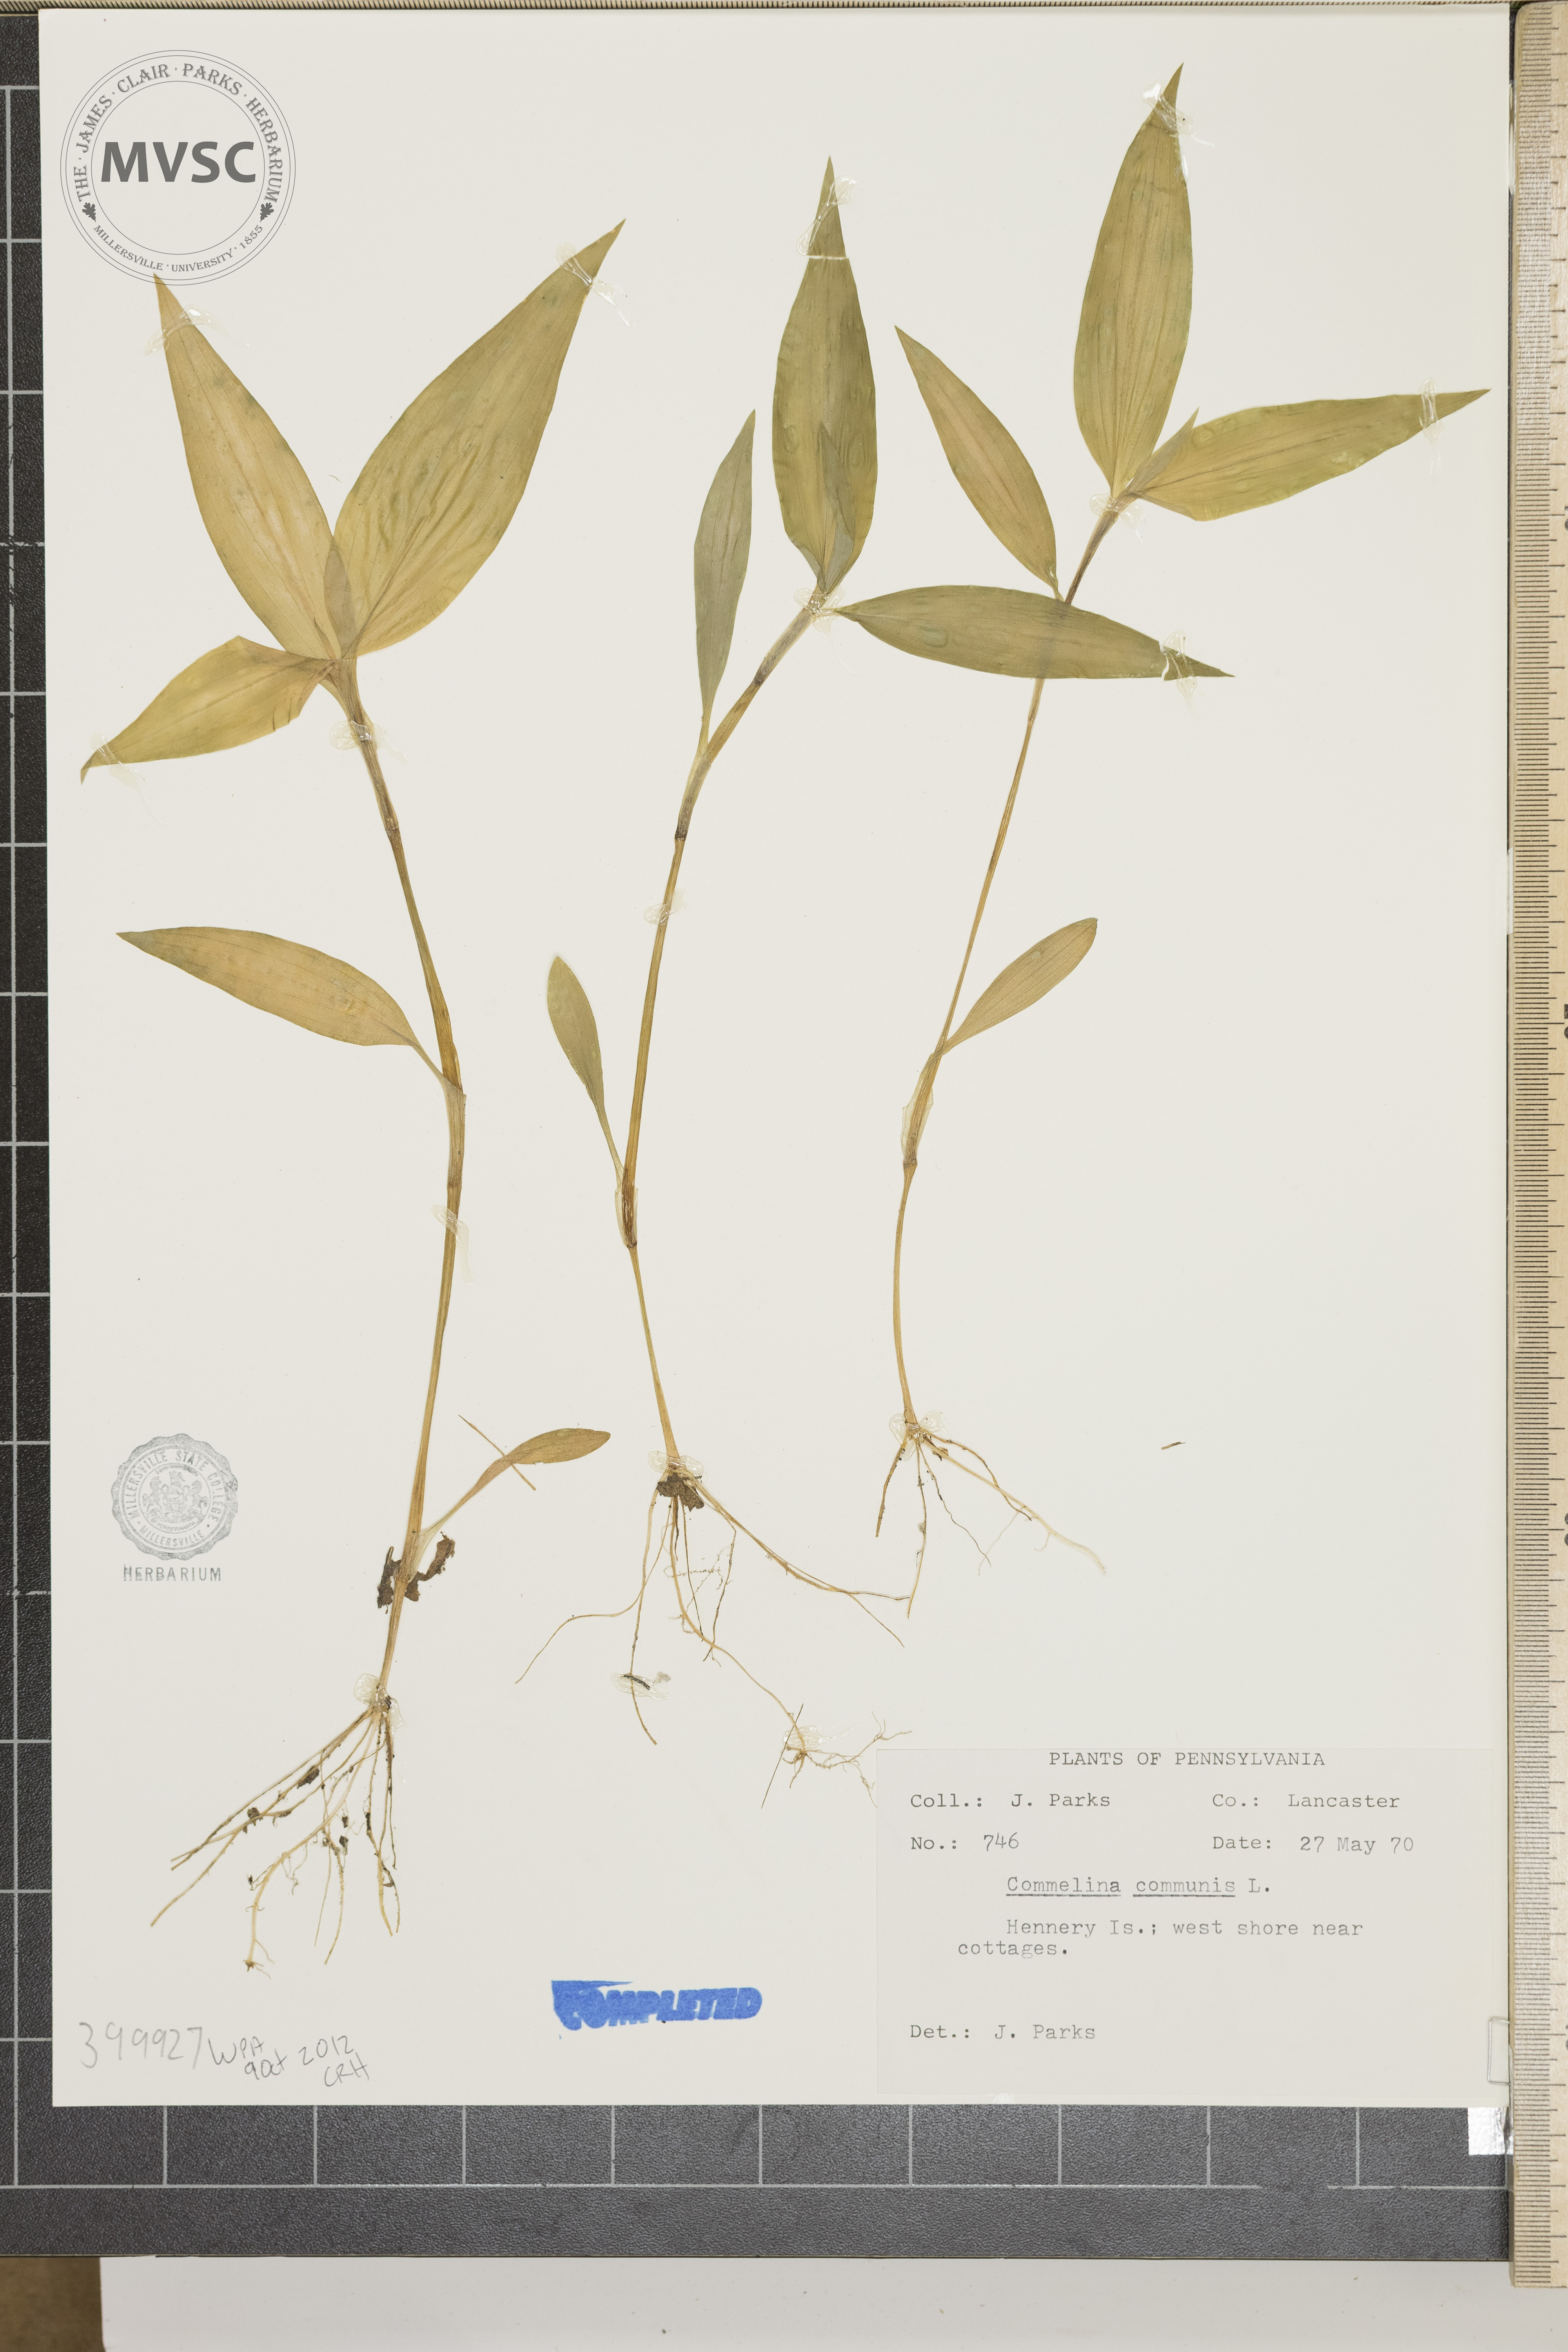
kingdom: Plantae
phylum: Tracheophyta
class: Liliopsida
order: Commelinales
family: Commelinaceae
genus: Commelina
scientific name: Commelina communis
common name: Asiatic dayflower
